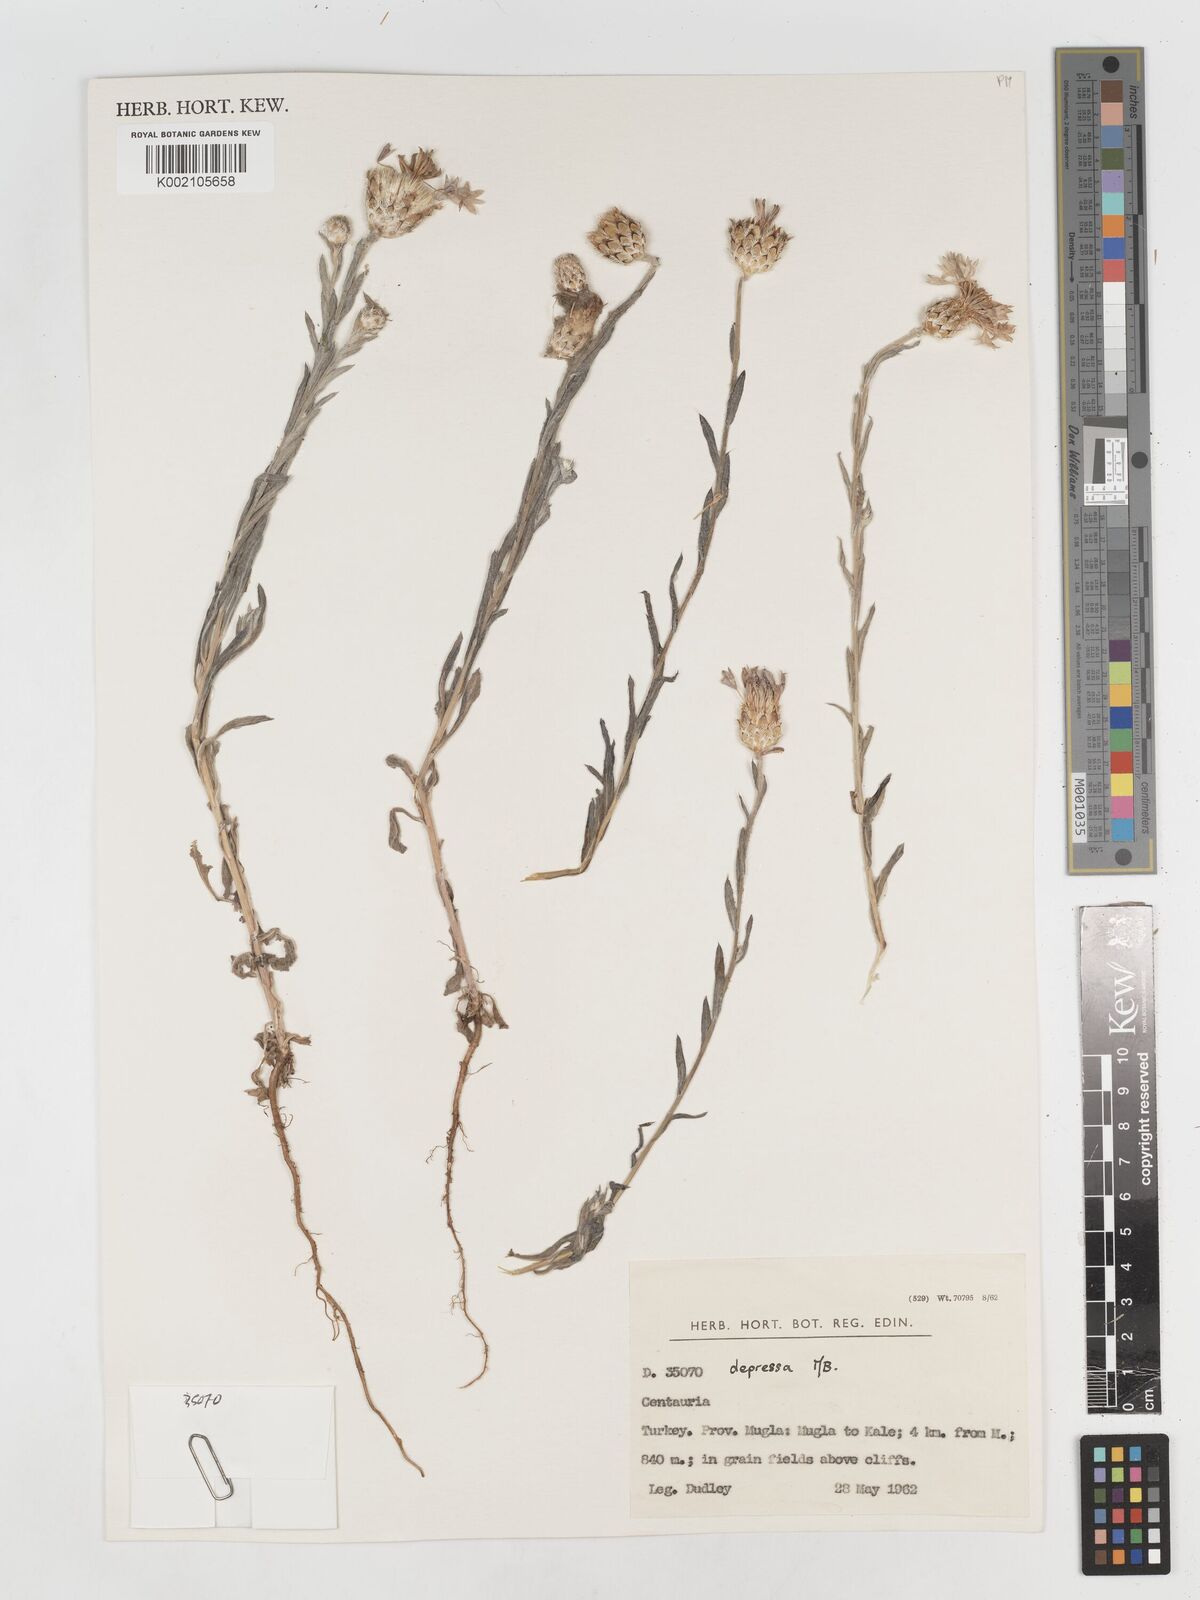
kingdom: Plantae
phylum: Tracheophyta
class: Magnoliopsida
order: Asterales
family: Asteraceae
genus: Centaurea
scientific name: Centaurea depressa
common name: Iranian knapweed
